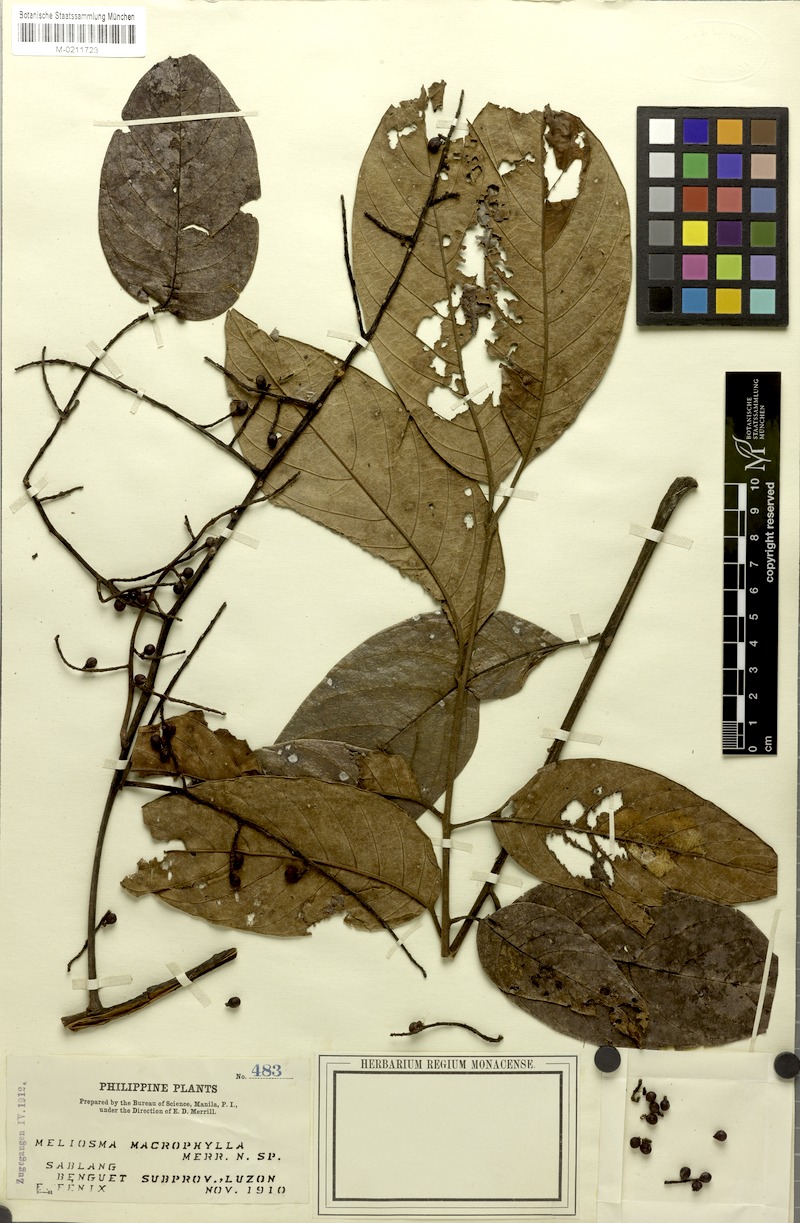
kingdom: Plantae
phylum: Tracheophyta
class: Magnoliopsida
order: Proteales
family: Sabiaceae
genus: Meliosma
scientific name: Meliosma pinnata
